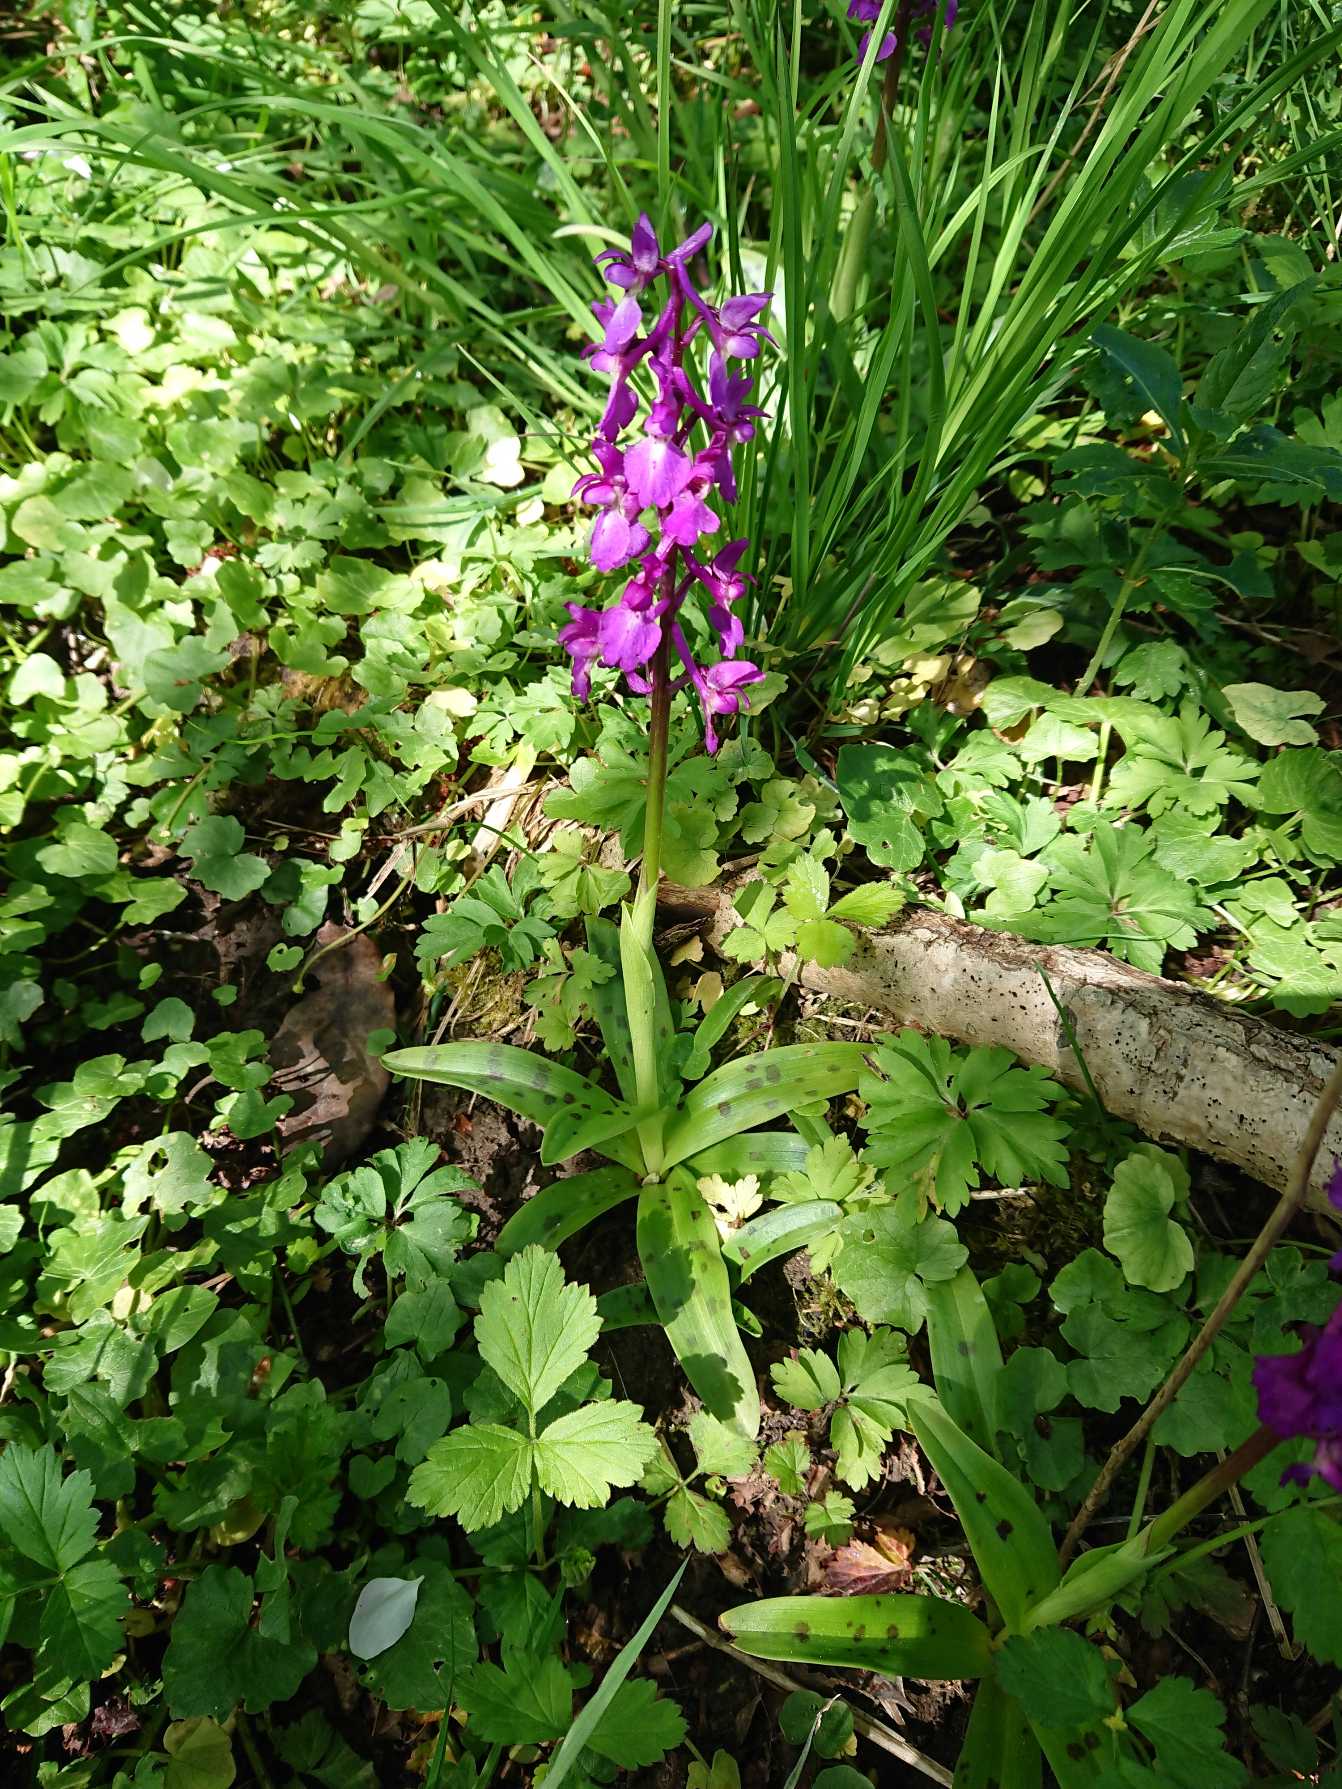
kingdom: Plantae
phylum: Tracheophyta
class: Liliopsida
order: Asparagales
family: Orchidaceae
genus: Orchis
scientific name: Orchis mascula
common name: Tyndakset gøgeurt
